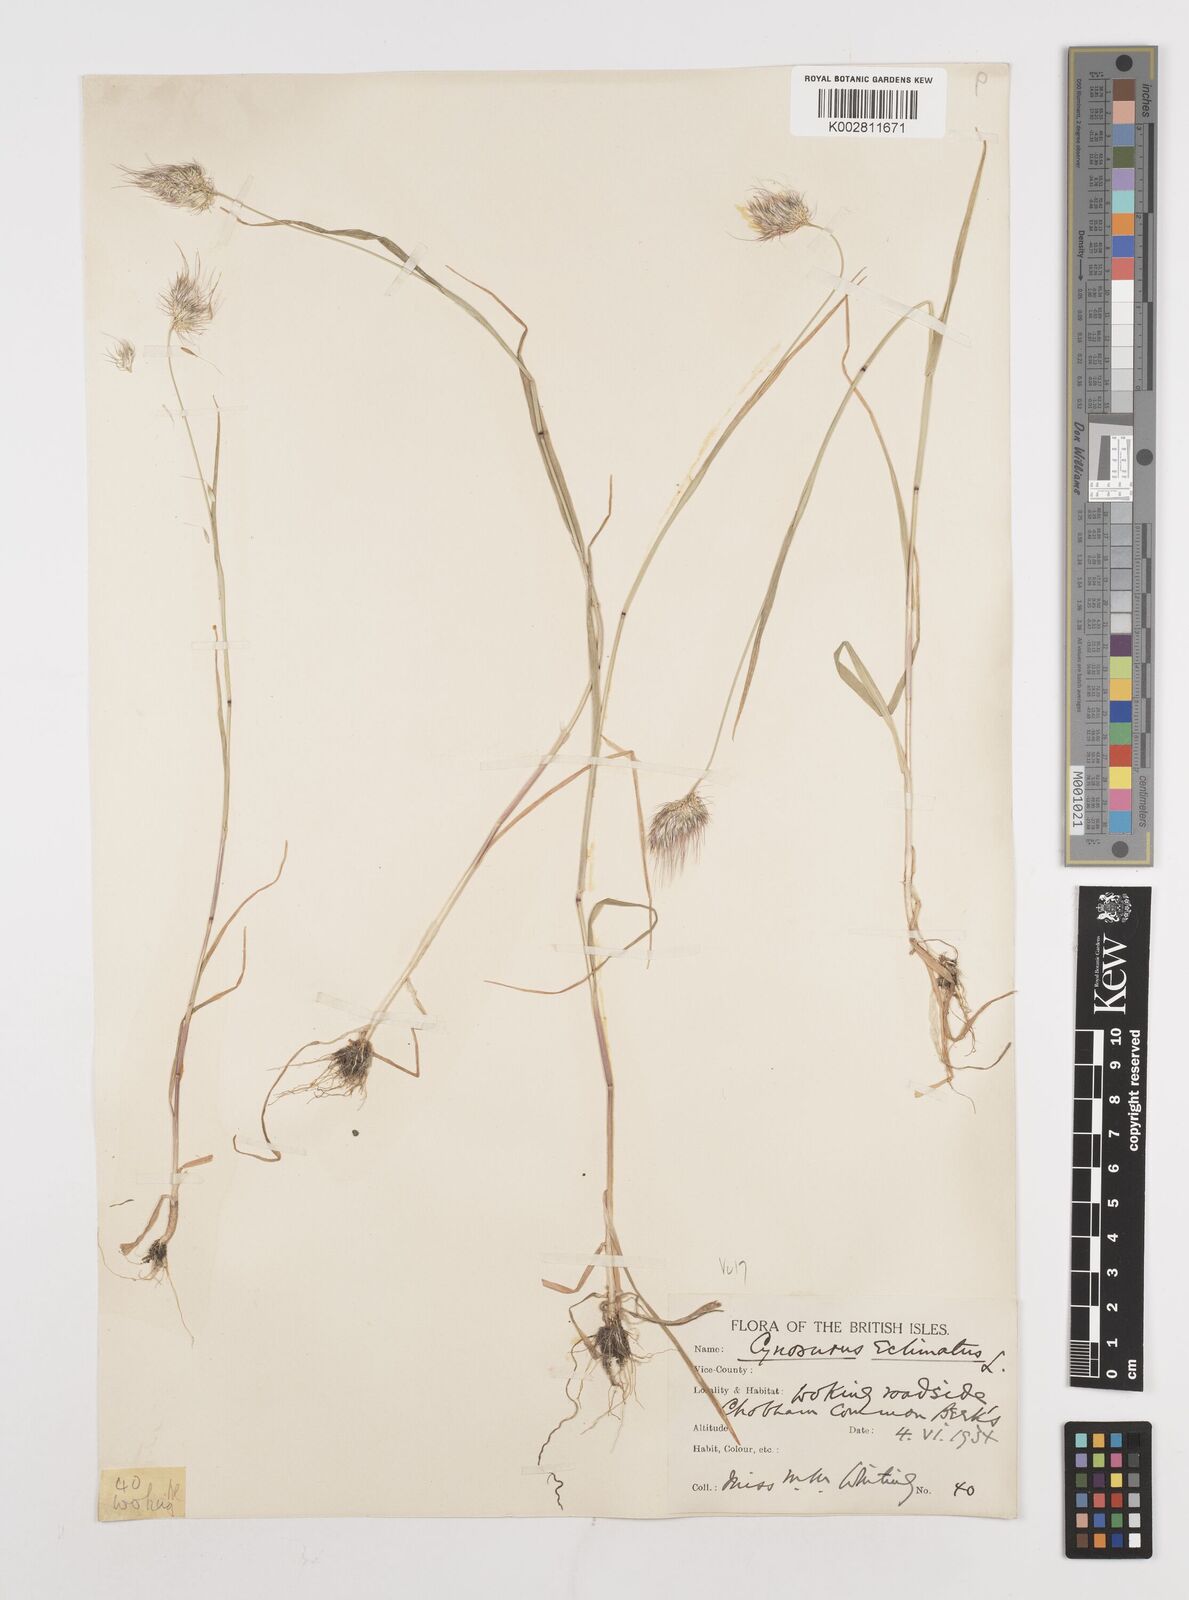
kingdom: Plantae
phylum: Tracheophyta
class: Liliopsida
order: Poales
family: Poaceae
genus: Cynosurus
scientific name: Cynosurus echinatus
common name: Rough dog's-tail
